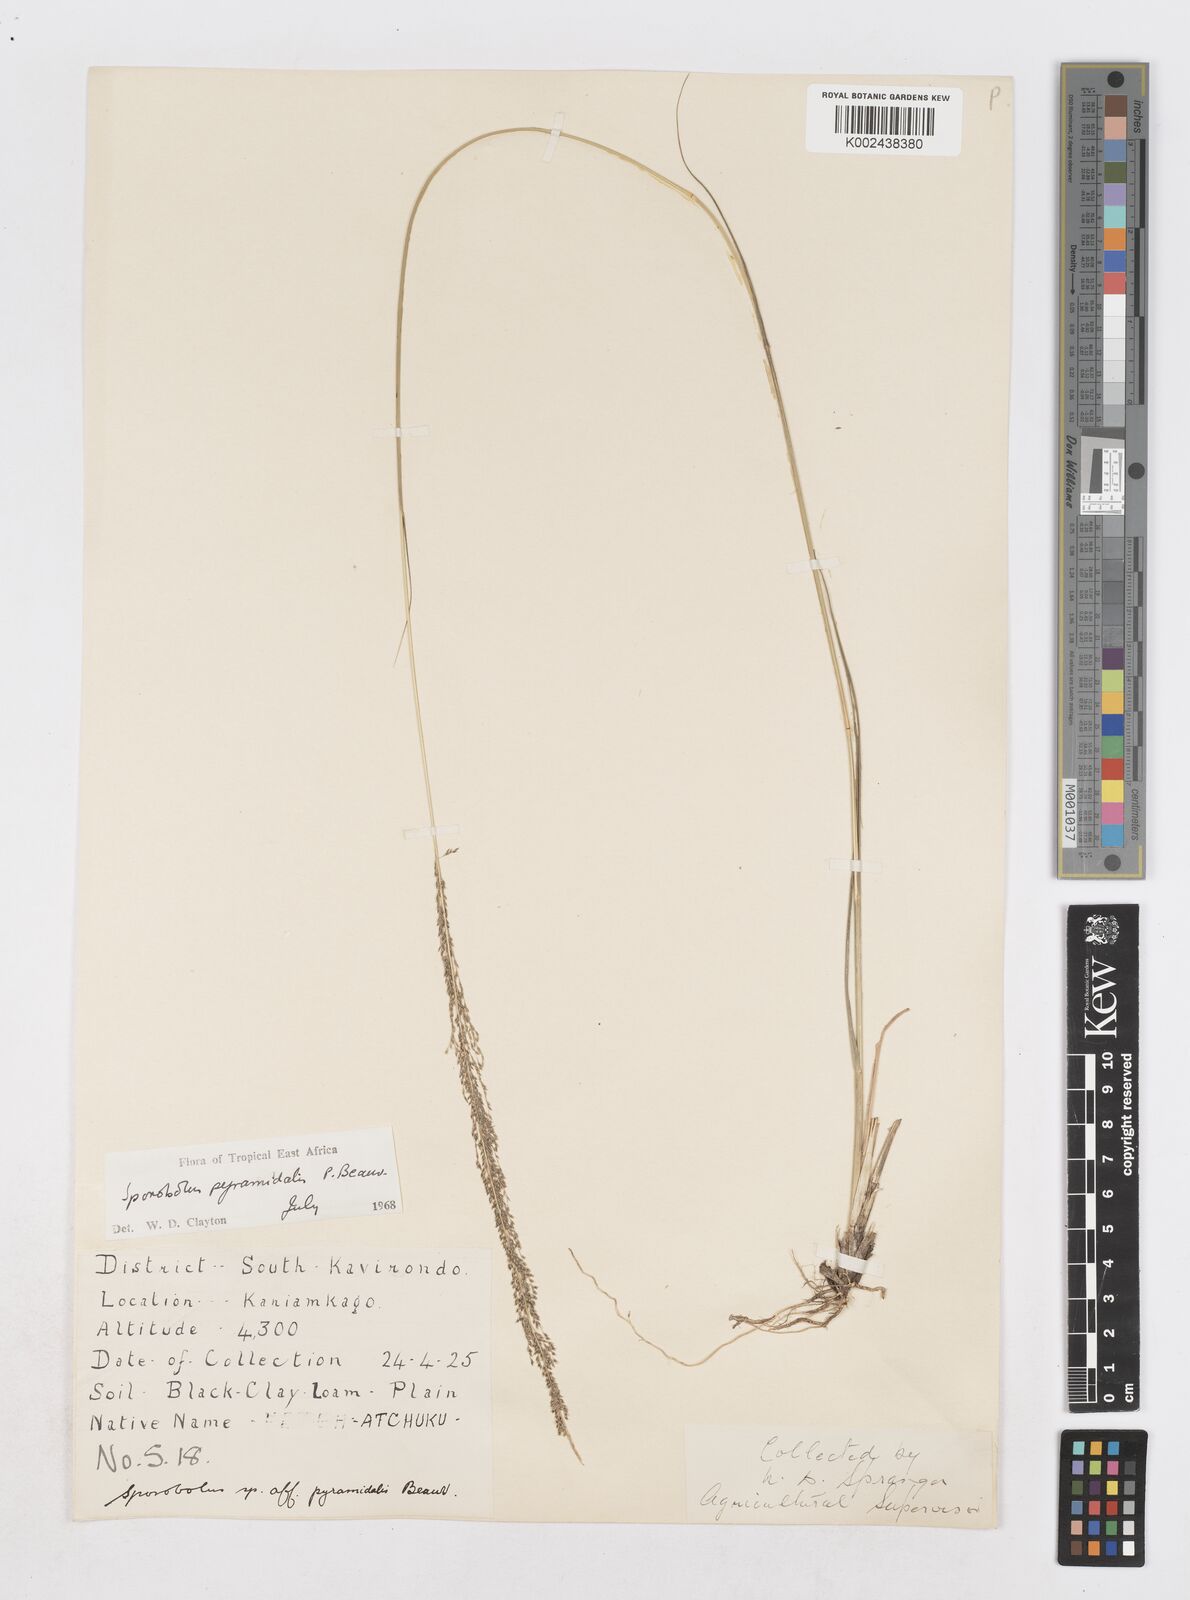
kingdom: Plantae
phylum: Tracheophyta
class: Liliopsida
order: Poales
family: Poaceae
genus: Sporobolus
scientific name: Sporobolus pyramidalis
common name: West indian dropseed
